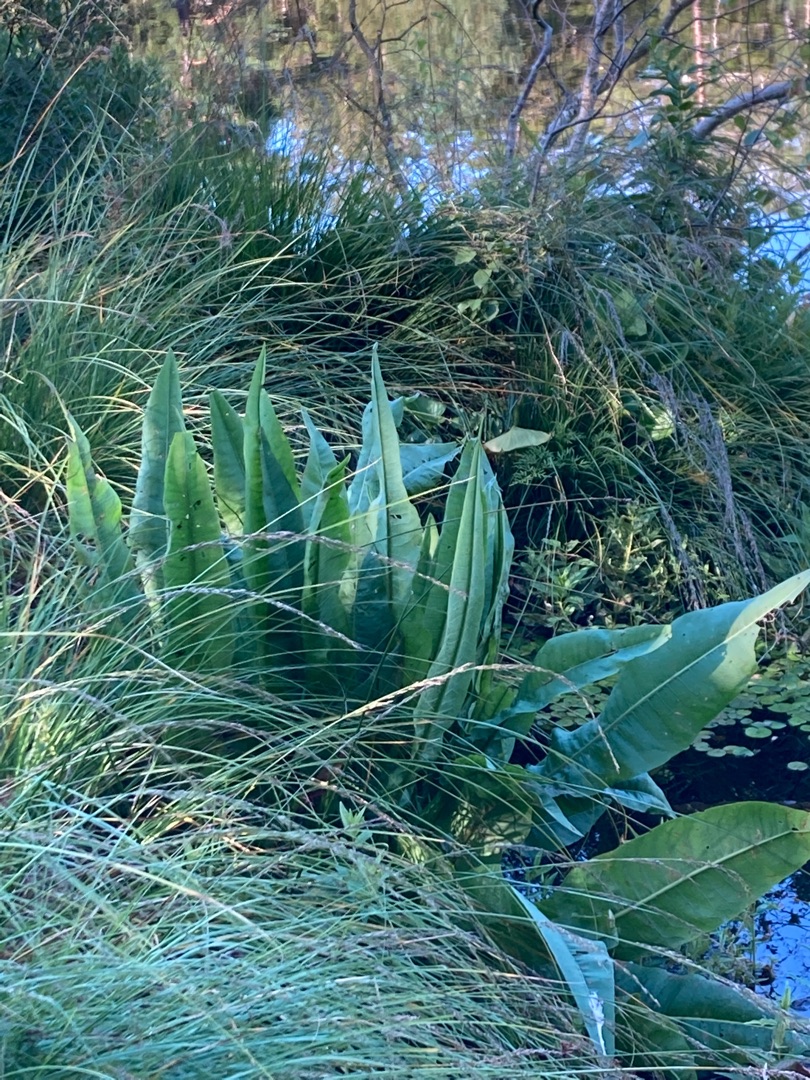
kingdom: Plantae
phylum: Tracheophyta
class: Magnoliopsida
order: Caryophyllales
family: Polygonaceae
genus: Rumex
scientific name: Rumex hydrolapathum
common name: Vand-skræppe
